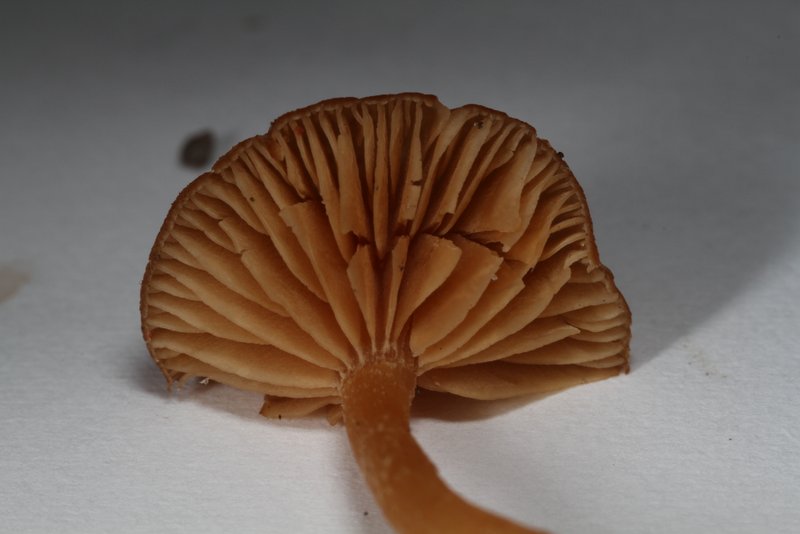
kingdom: Fungi
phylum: Basidiomycota
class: Agaricomycetes
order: Agaricales
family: Tubariaceae
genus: Tubaria
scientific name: Tubaria furfuracea
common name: kliddet fnughat
